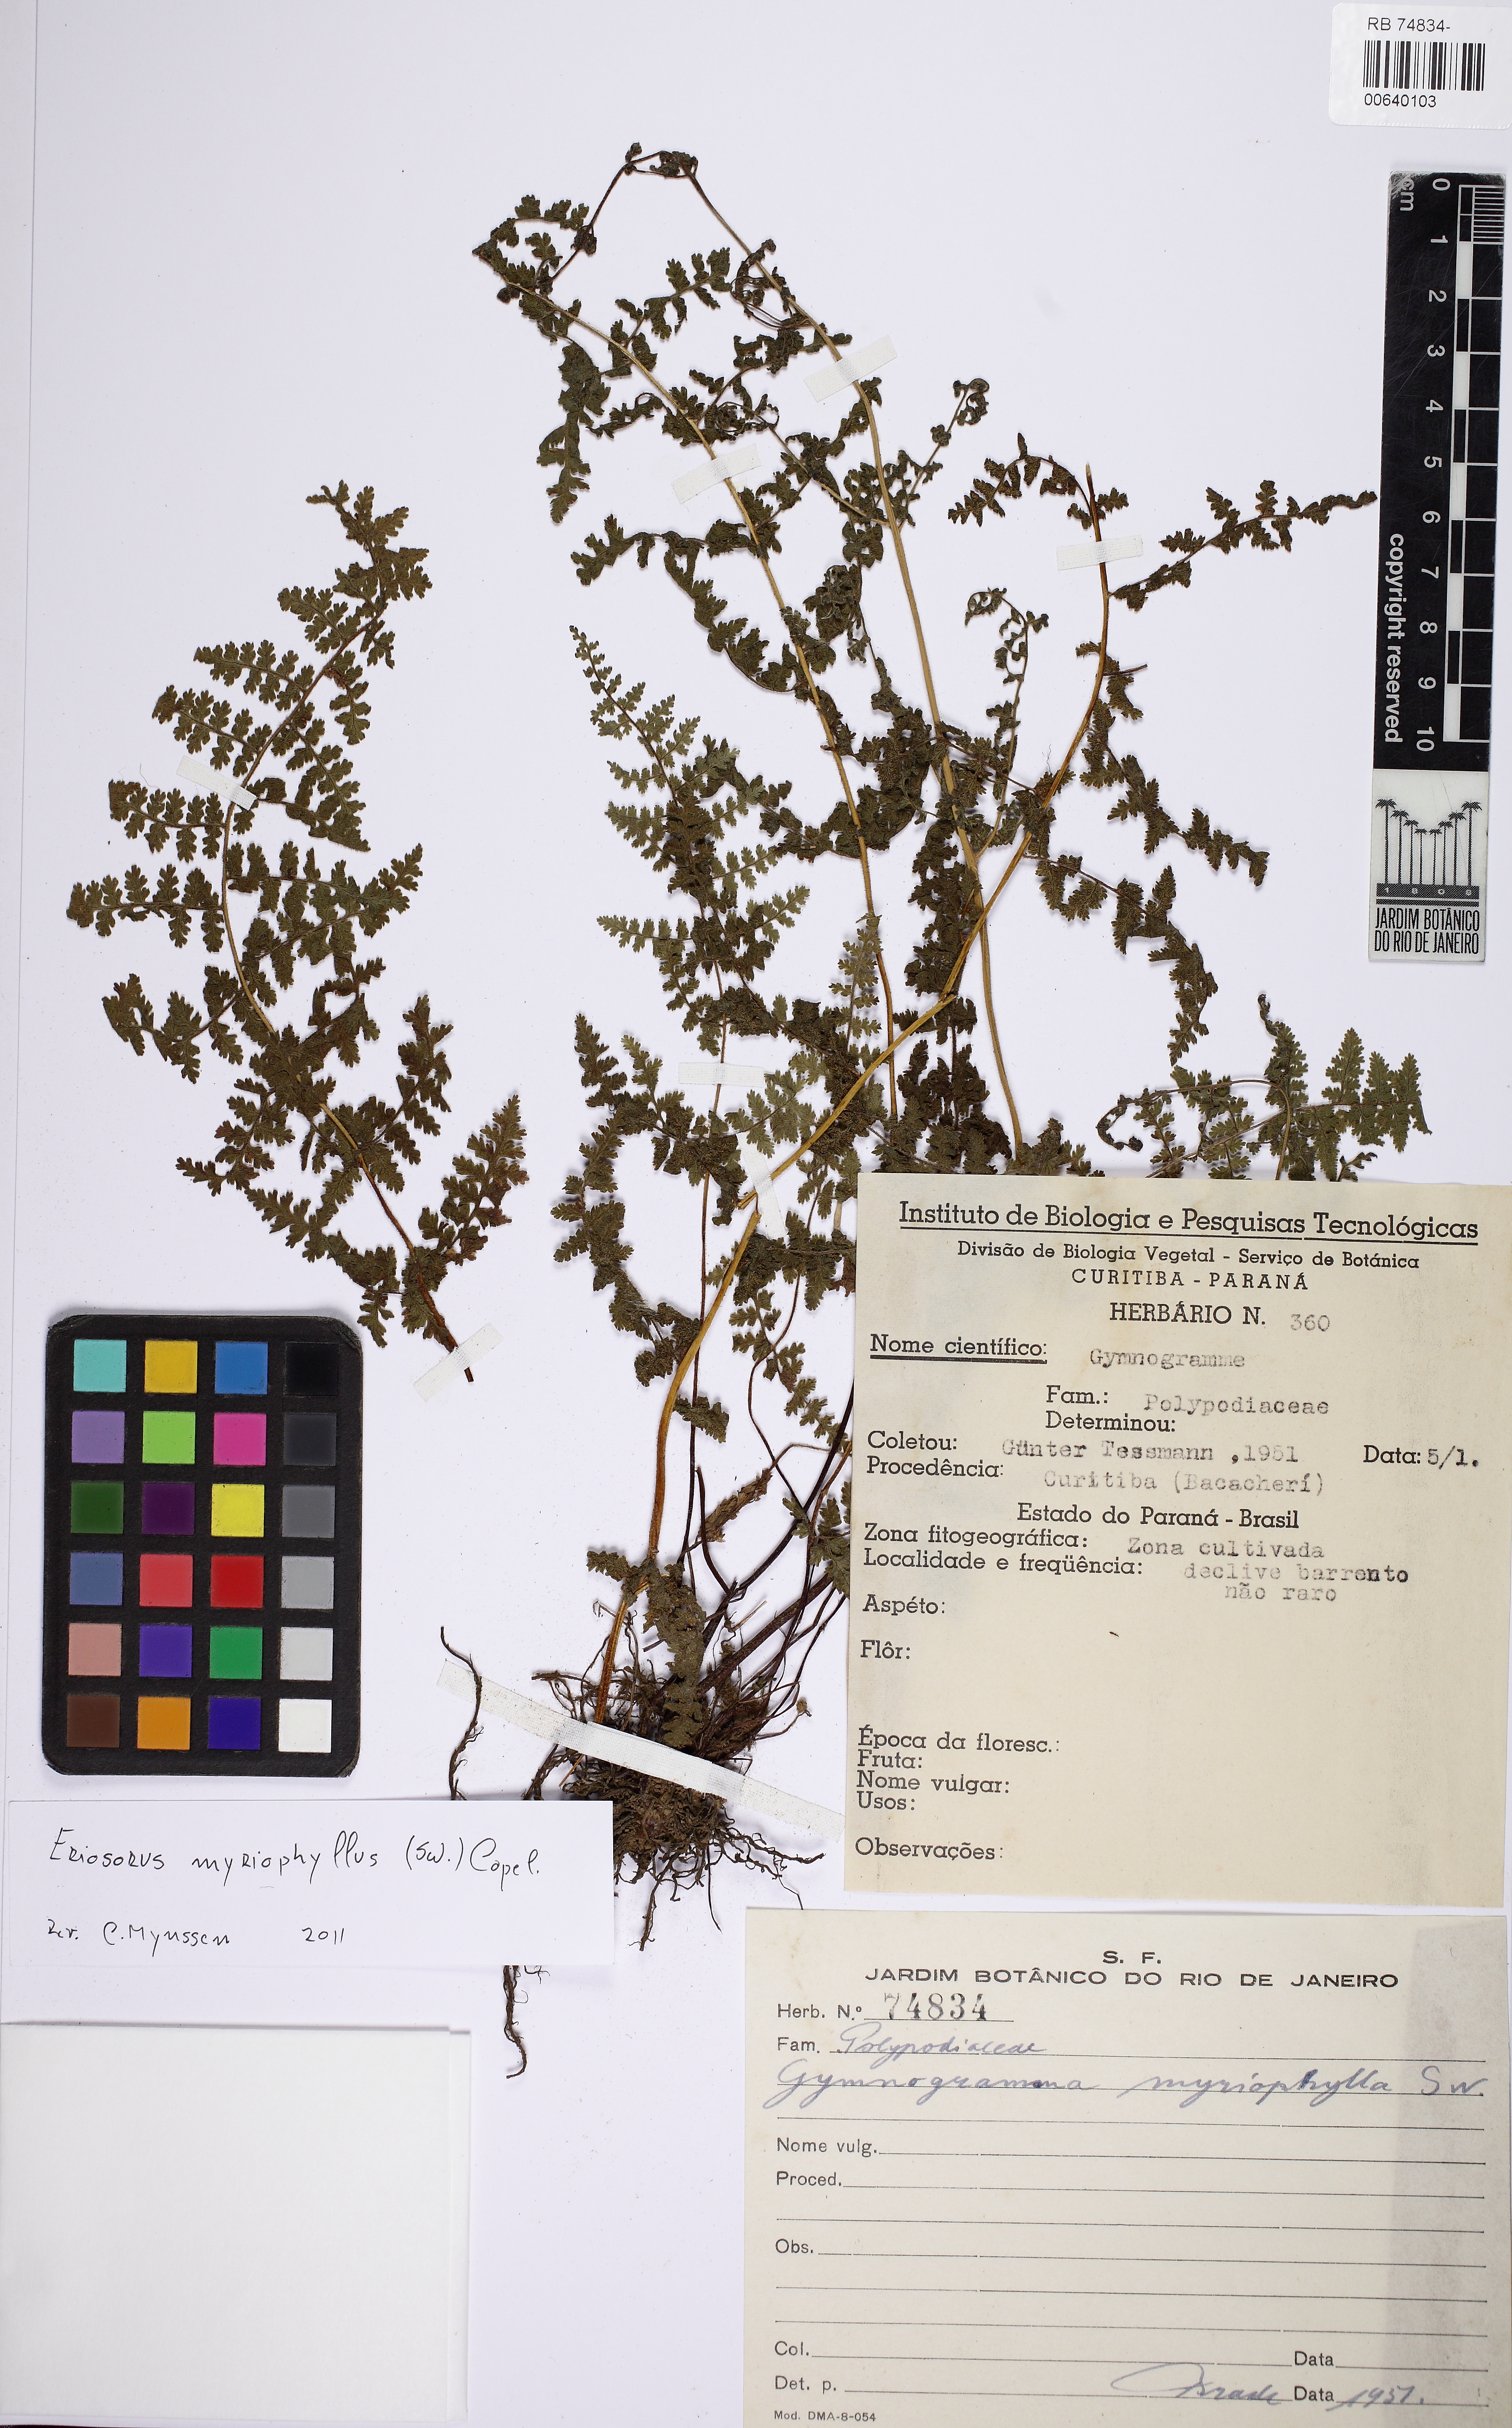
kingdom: Plantae
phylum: Tracheophyta
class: Polypodiopsida
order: Polypodiales
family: Pteridaceae
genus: Tryonia
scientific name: Tryonia myriophylla
